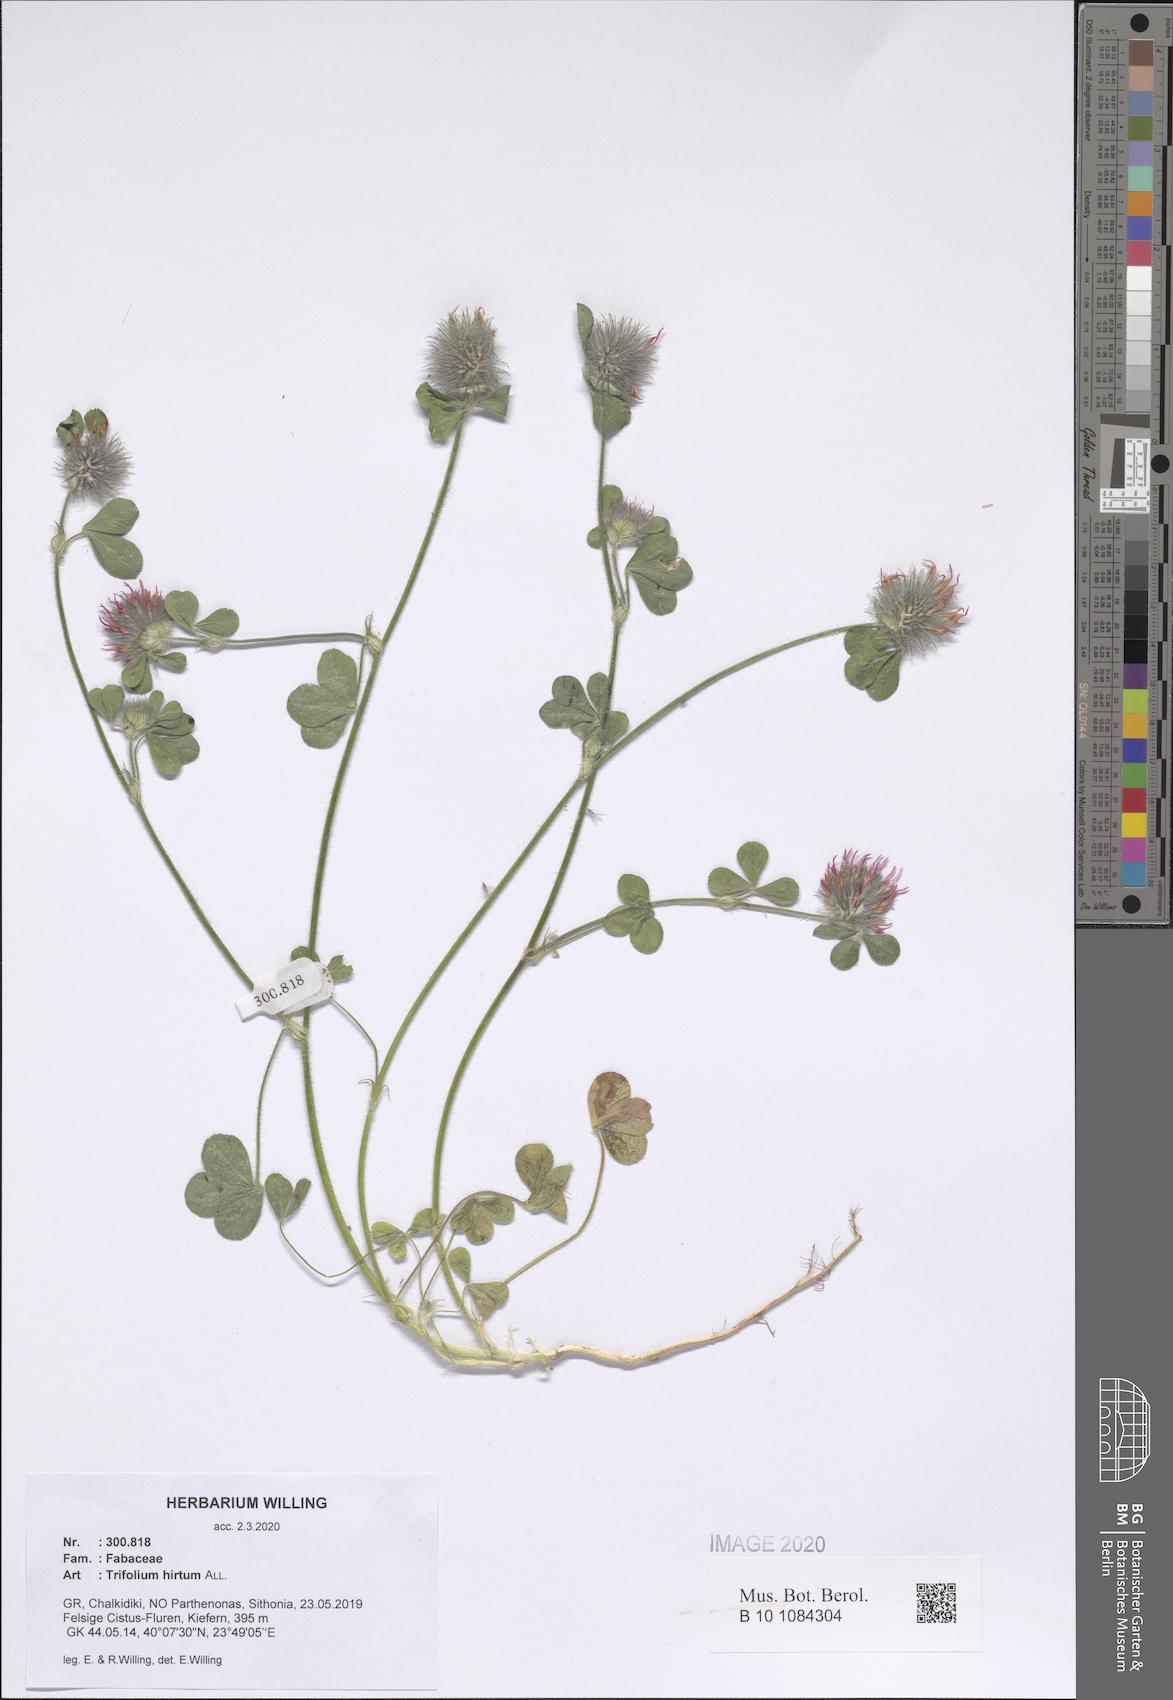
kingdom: Plantae
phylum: Tracheophyta
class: Magnoliopsida
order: Fabales
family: Fabaceae
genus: Trifolium
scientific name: Trifolium hirtum
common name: Rose clover
